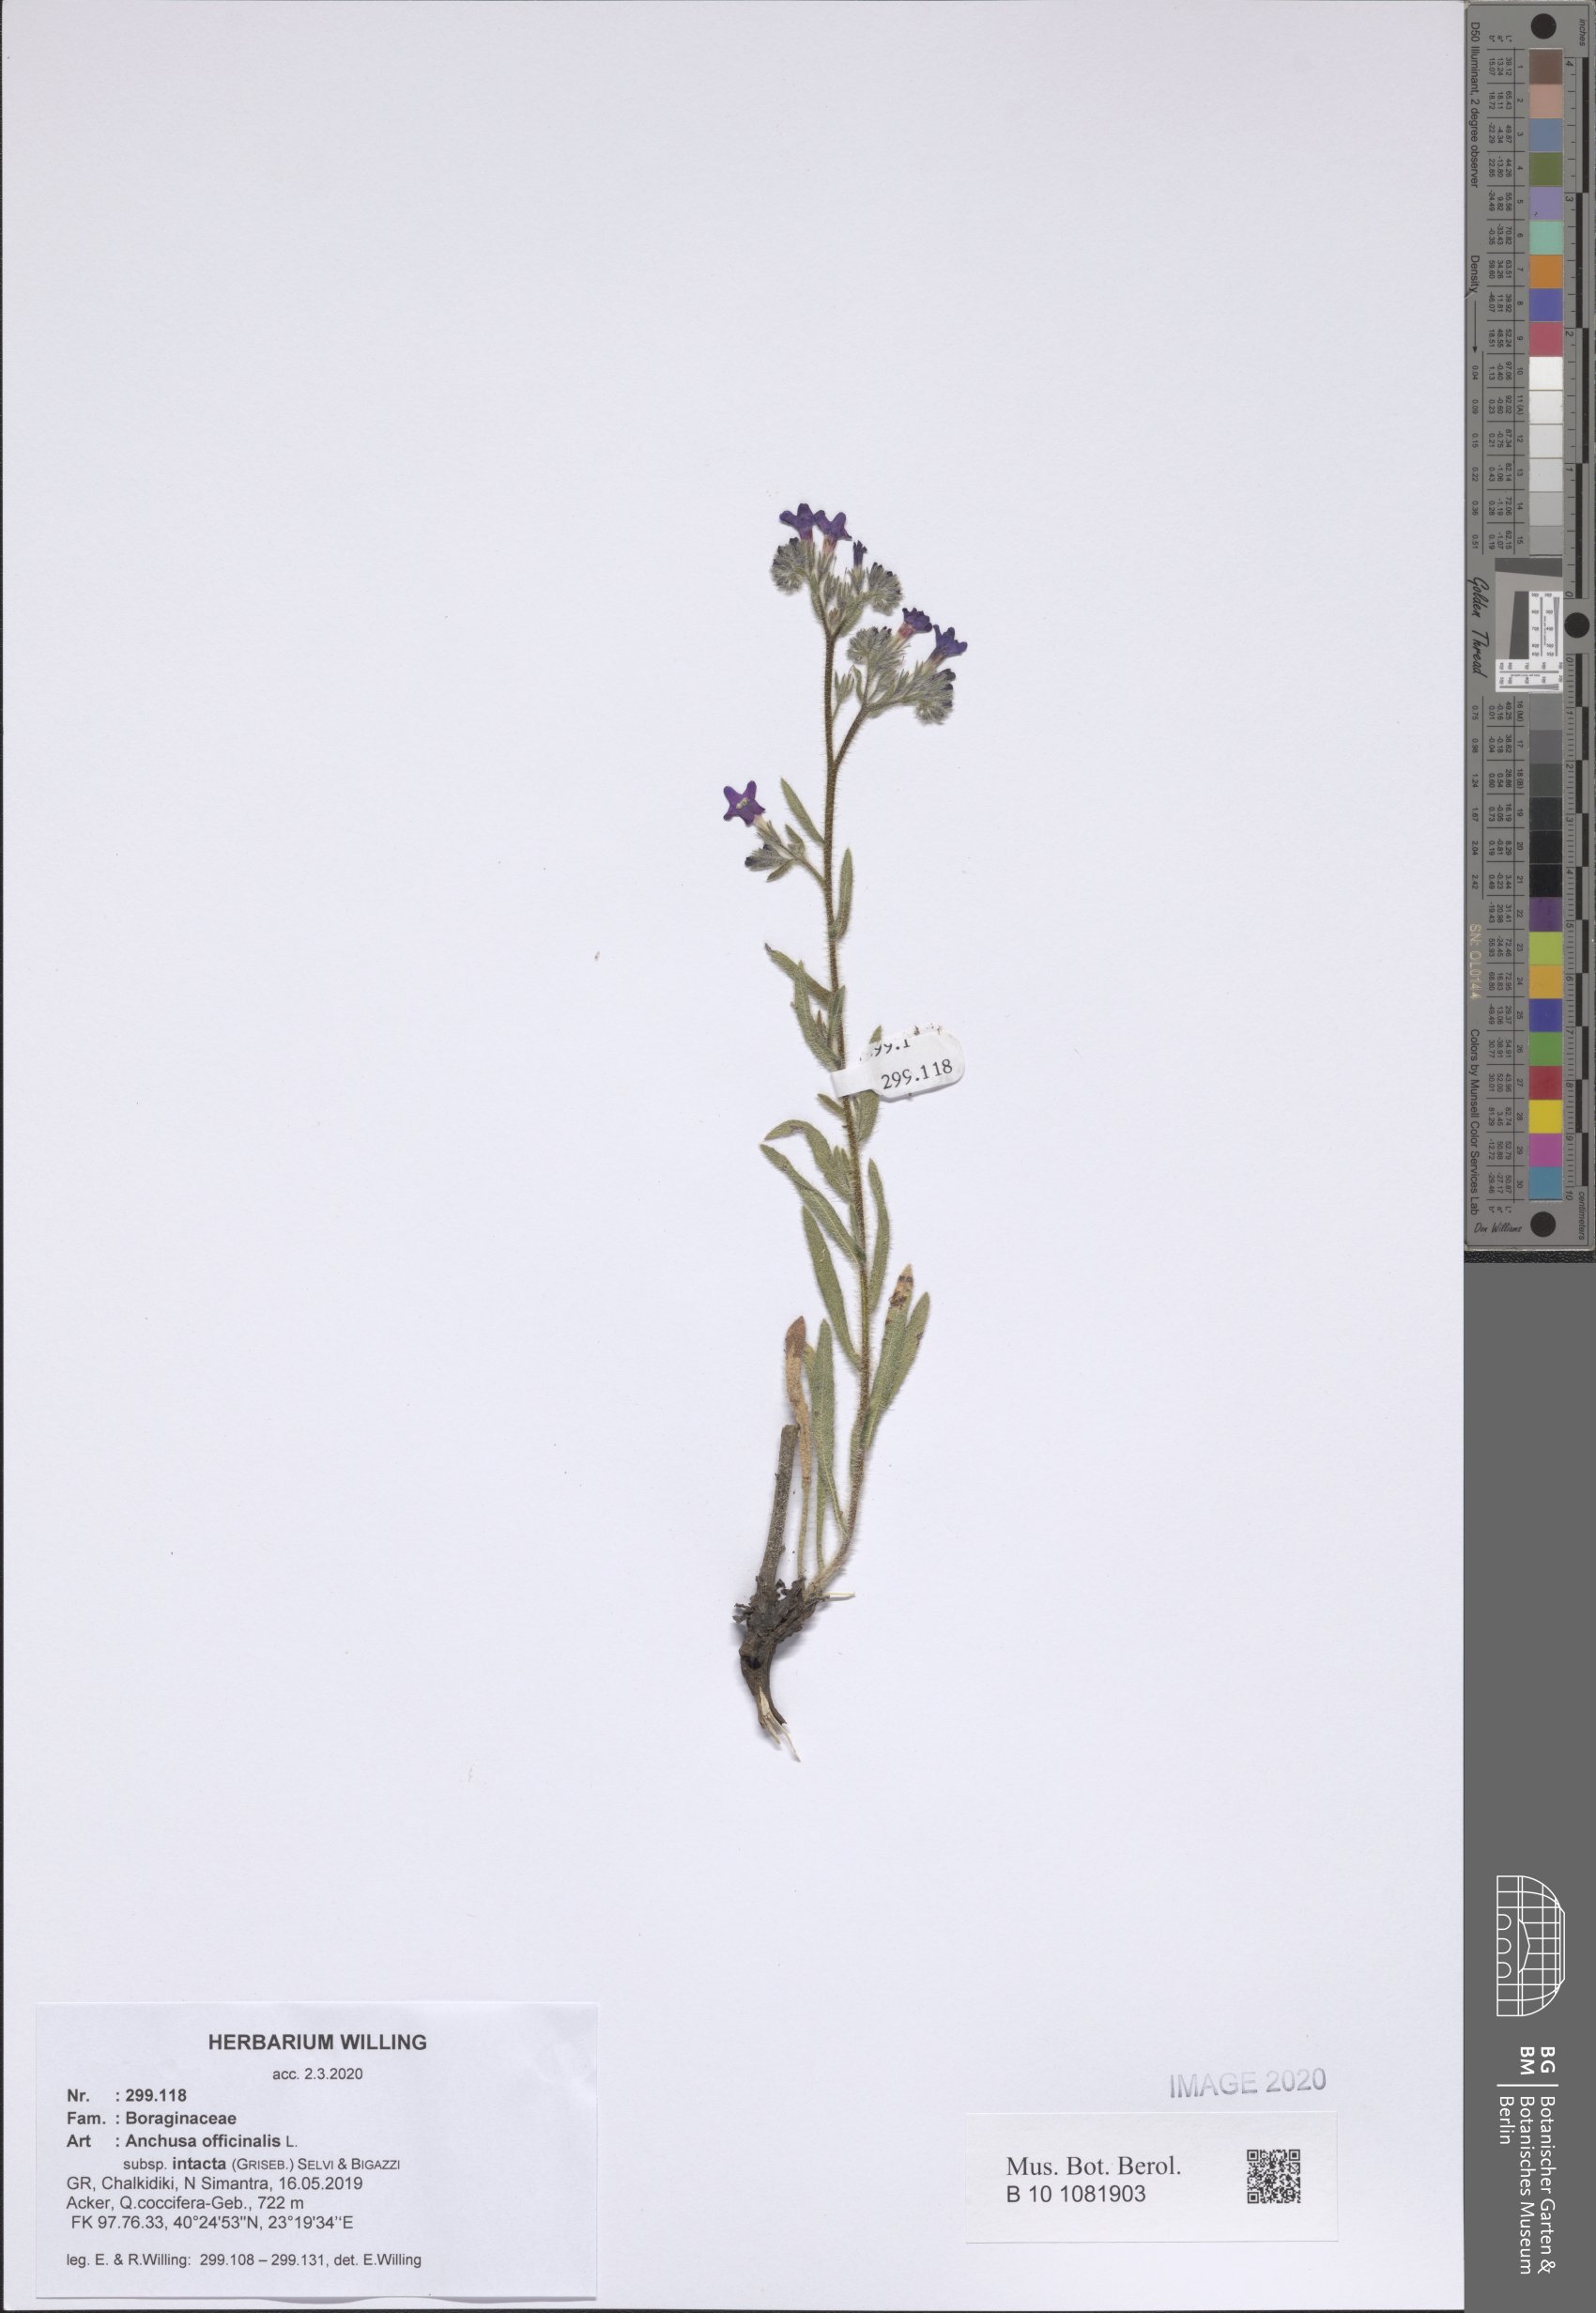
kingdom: Plantae
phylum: Tracheophyta
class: Magnoliopsida
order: Boraginales
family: Boraginaceae
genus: Anchusa
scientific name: Anchusa officinalis
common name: Alkanet
